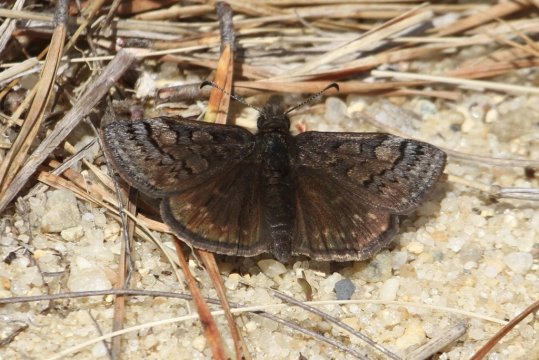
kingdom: Animalia
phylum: Arthropoda
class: Insecta
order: Lepidoptera
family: Hesperiidae
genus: Erynnis
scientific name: Erynnis brizo
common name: Sleepy Duskywing
